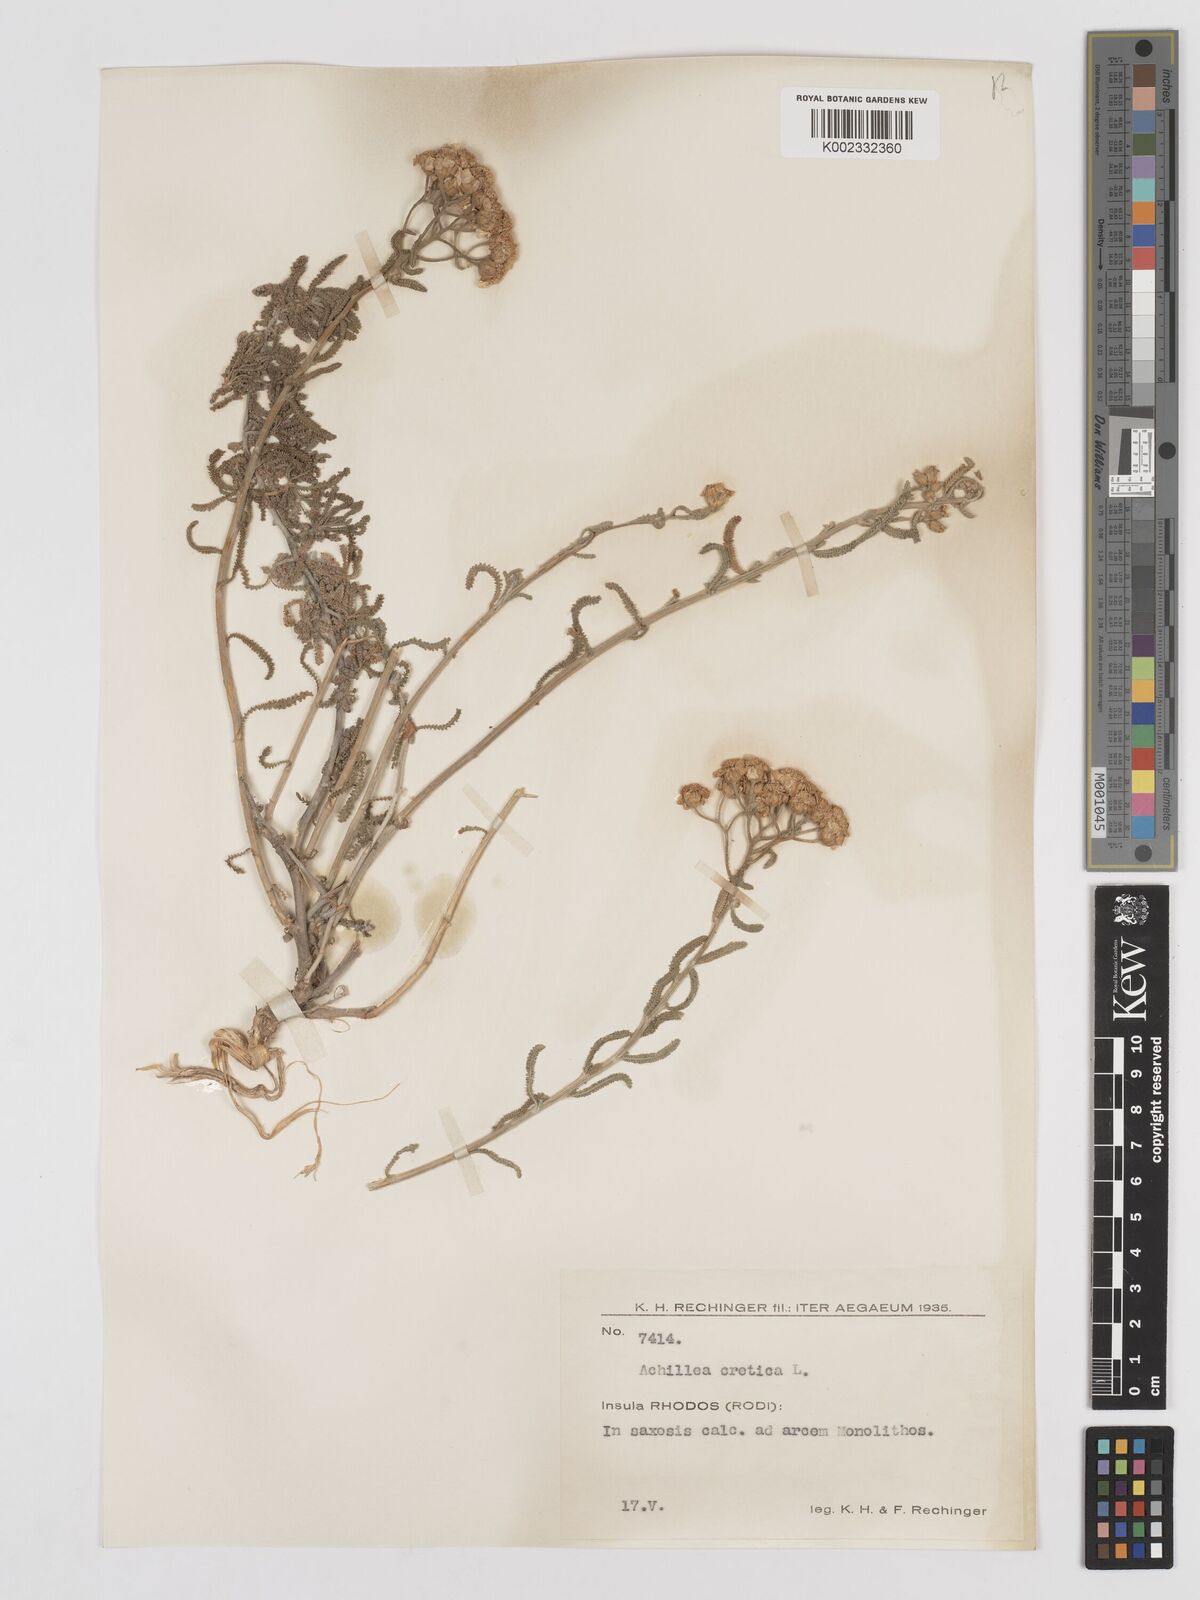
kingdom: Plantae
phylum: Tracheophyta
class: Magnoliopsida
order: Asterales
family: Asteraceae
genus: Achillea
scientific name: Achillea cretica
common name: Chamomile-leaved lavender-cotton
